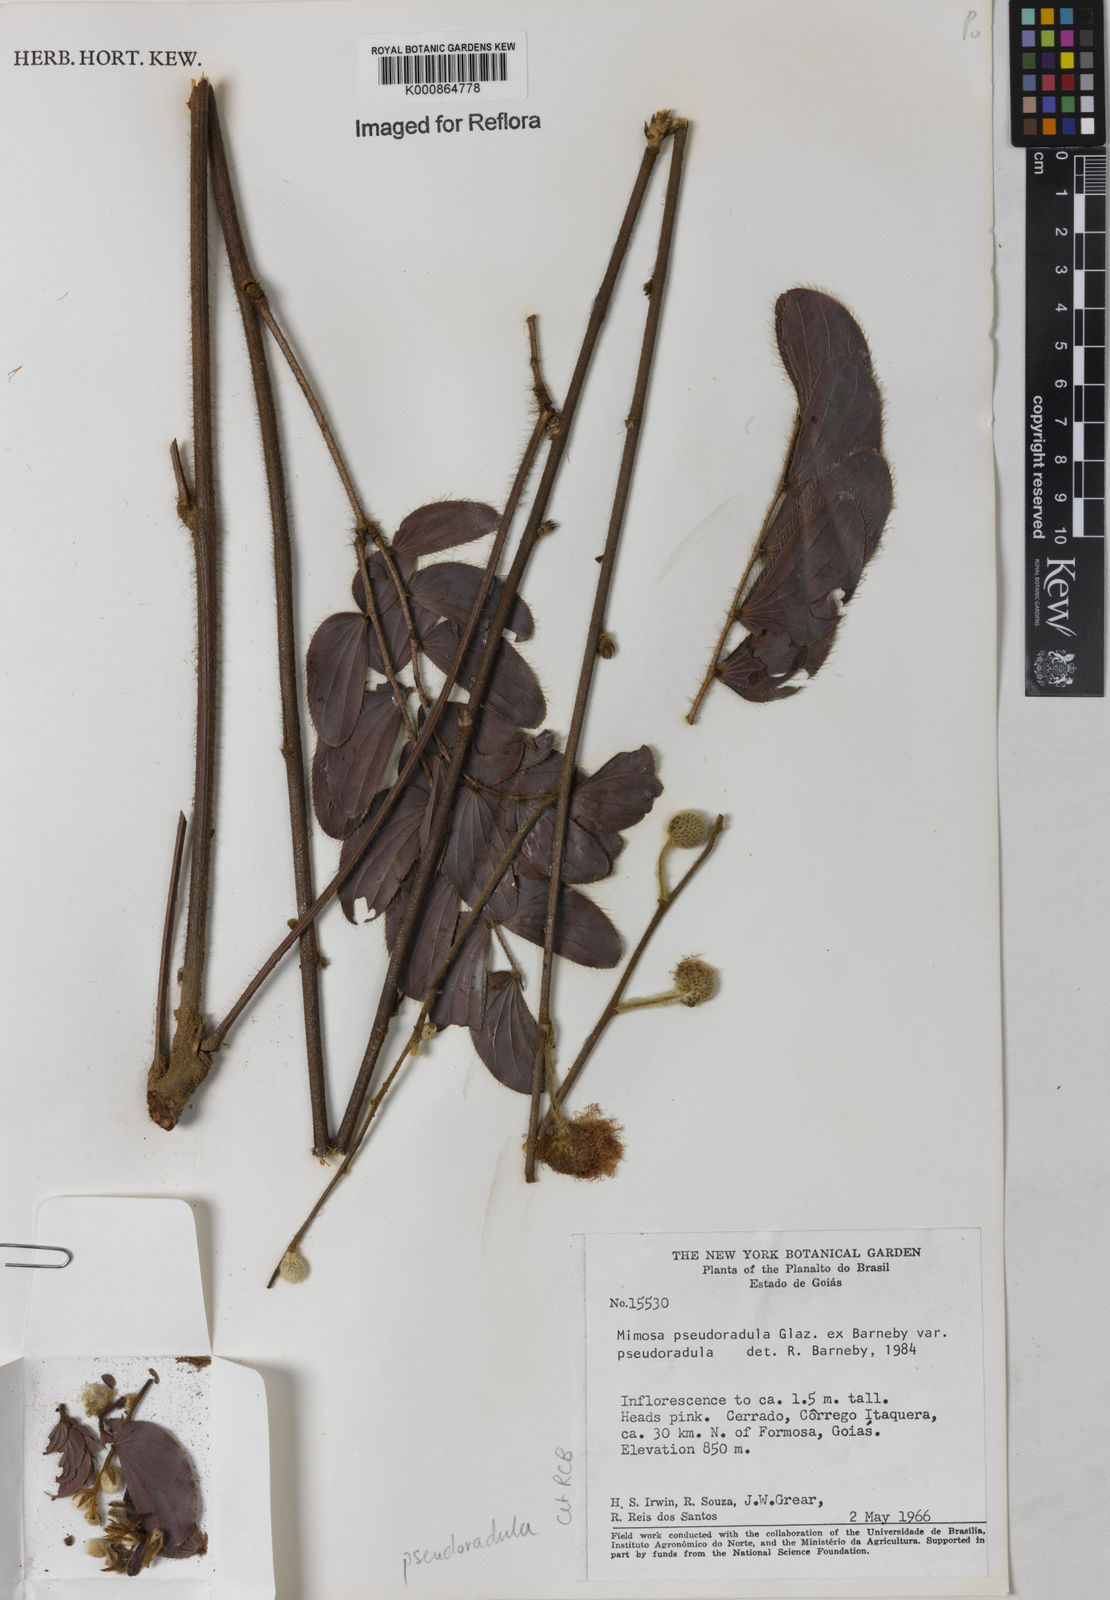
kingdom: Plantae
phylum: Tracheophyta
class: Magnoliopsida
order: Fabales
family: Fabaceae
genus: Mimosa
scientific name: Mimosa pseudoradula
